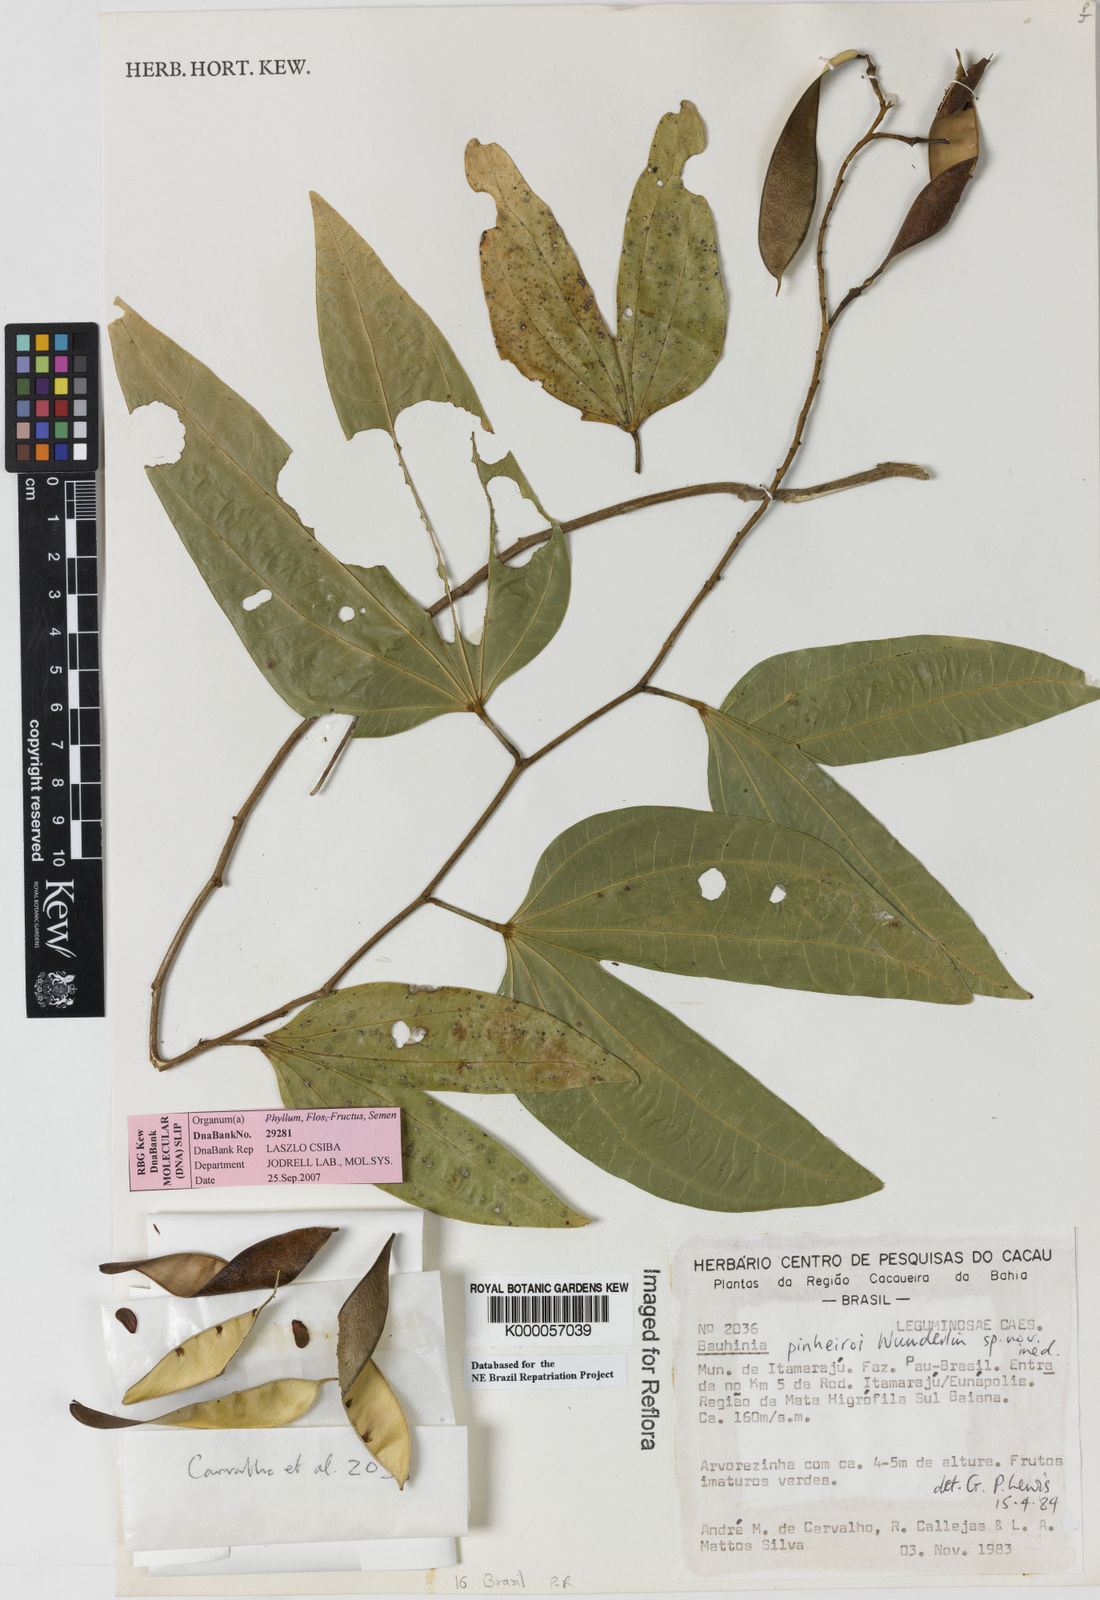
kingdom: Plantae
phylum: Tracheophyta
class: Magnoliopsida
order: Fabales
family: Fabaceae
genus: Bauhinia
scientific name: Bauhinia pinheiroi
